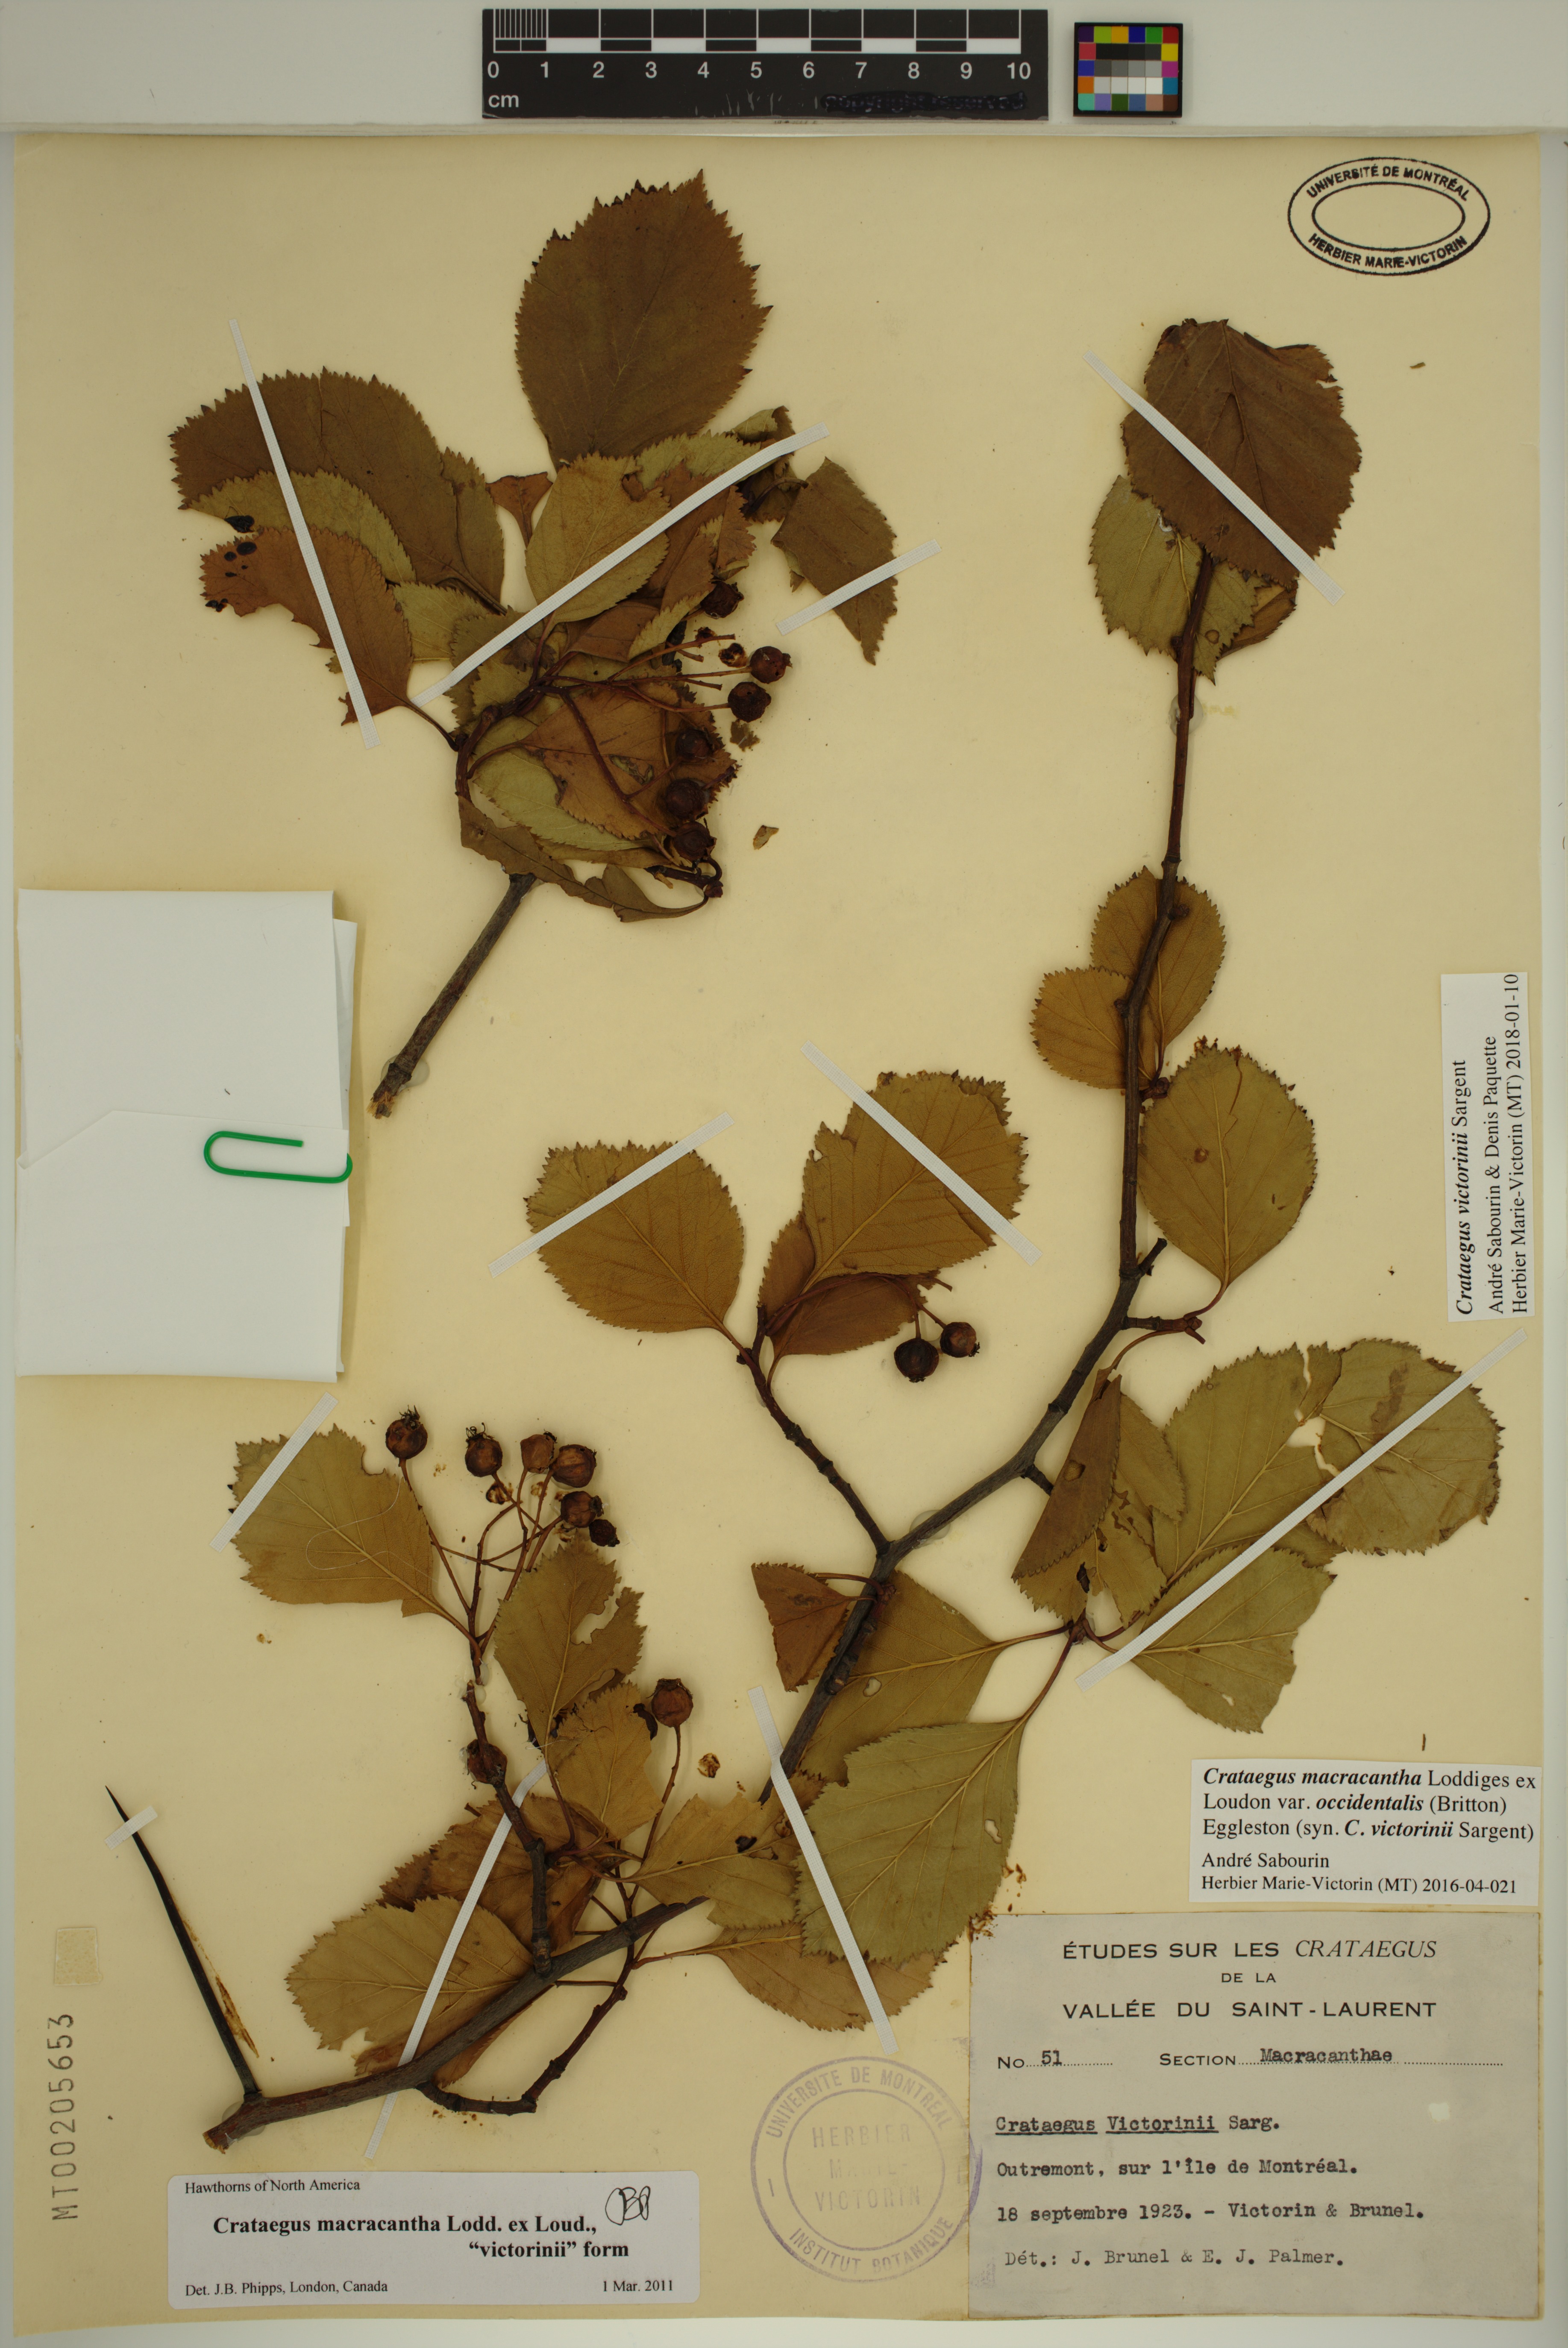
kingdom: Plantae
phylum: Tracheophyta
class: Magnoliopsida
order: Rosales
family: Rosaceae
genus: Crataegus
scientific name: Crataegus macracantha
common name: Large-thorn hawthorn
